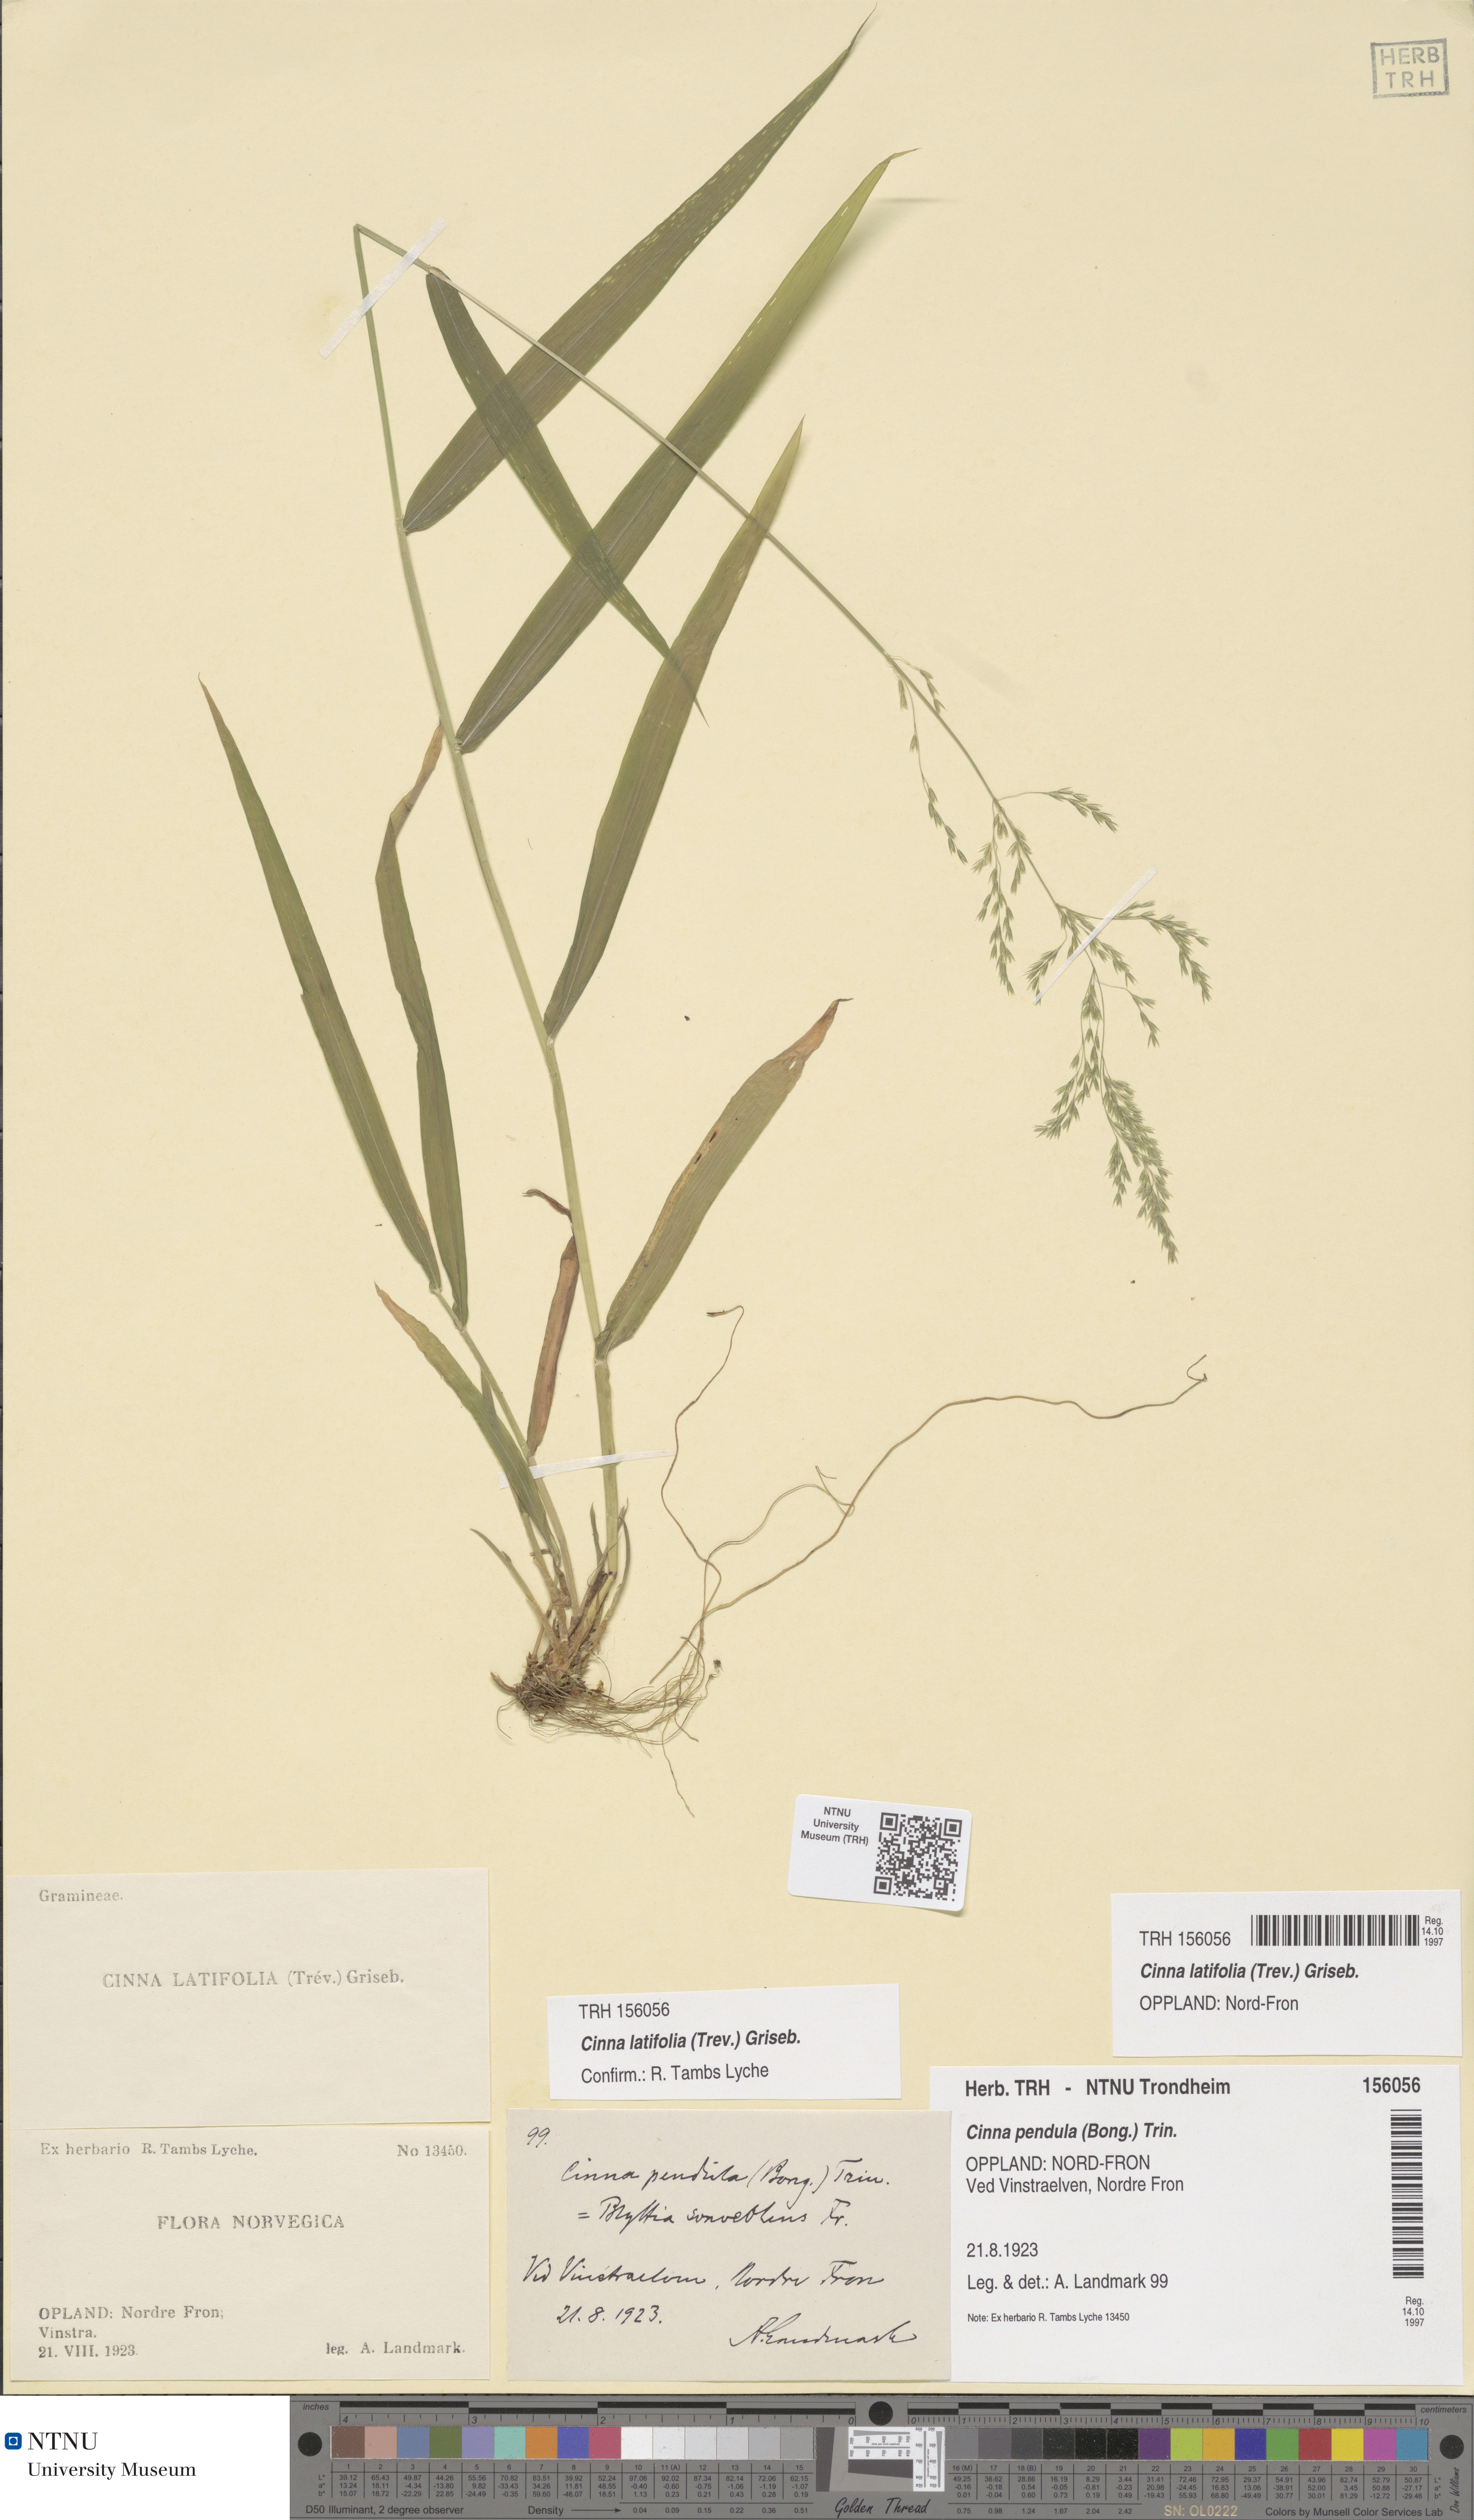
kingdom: Plantae
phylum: Tracheophyta
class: Liliopsida
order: Poales
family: Poaceae
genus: Cinna
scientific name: Cinna latifolia
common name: Drooping woodreed
